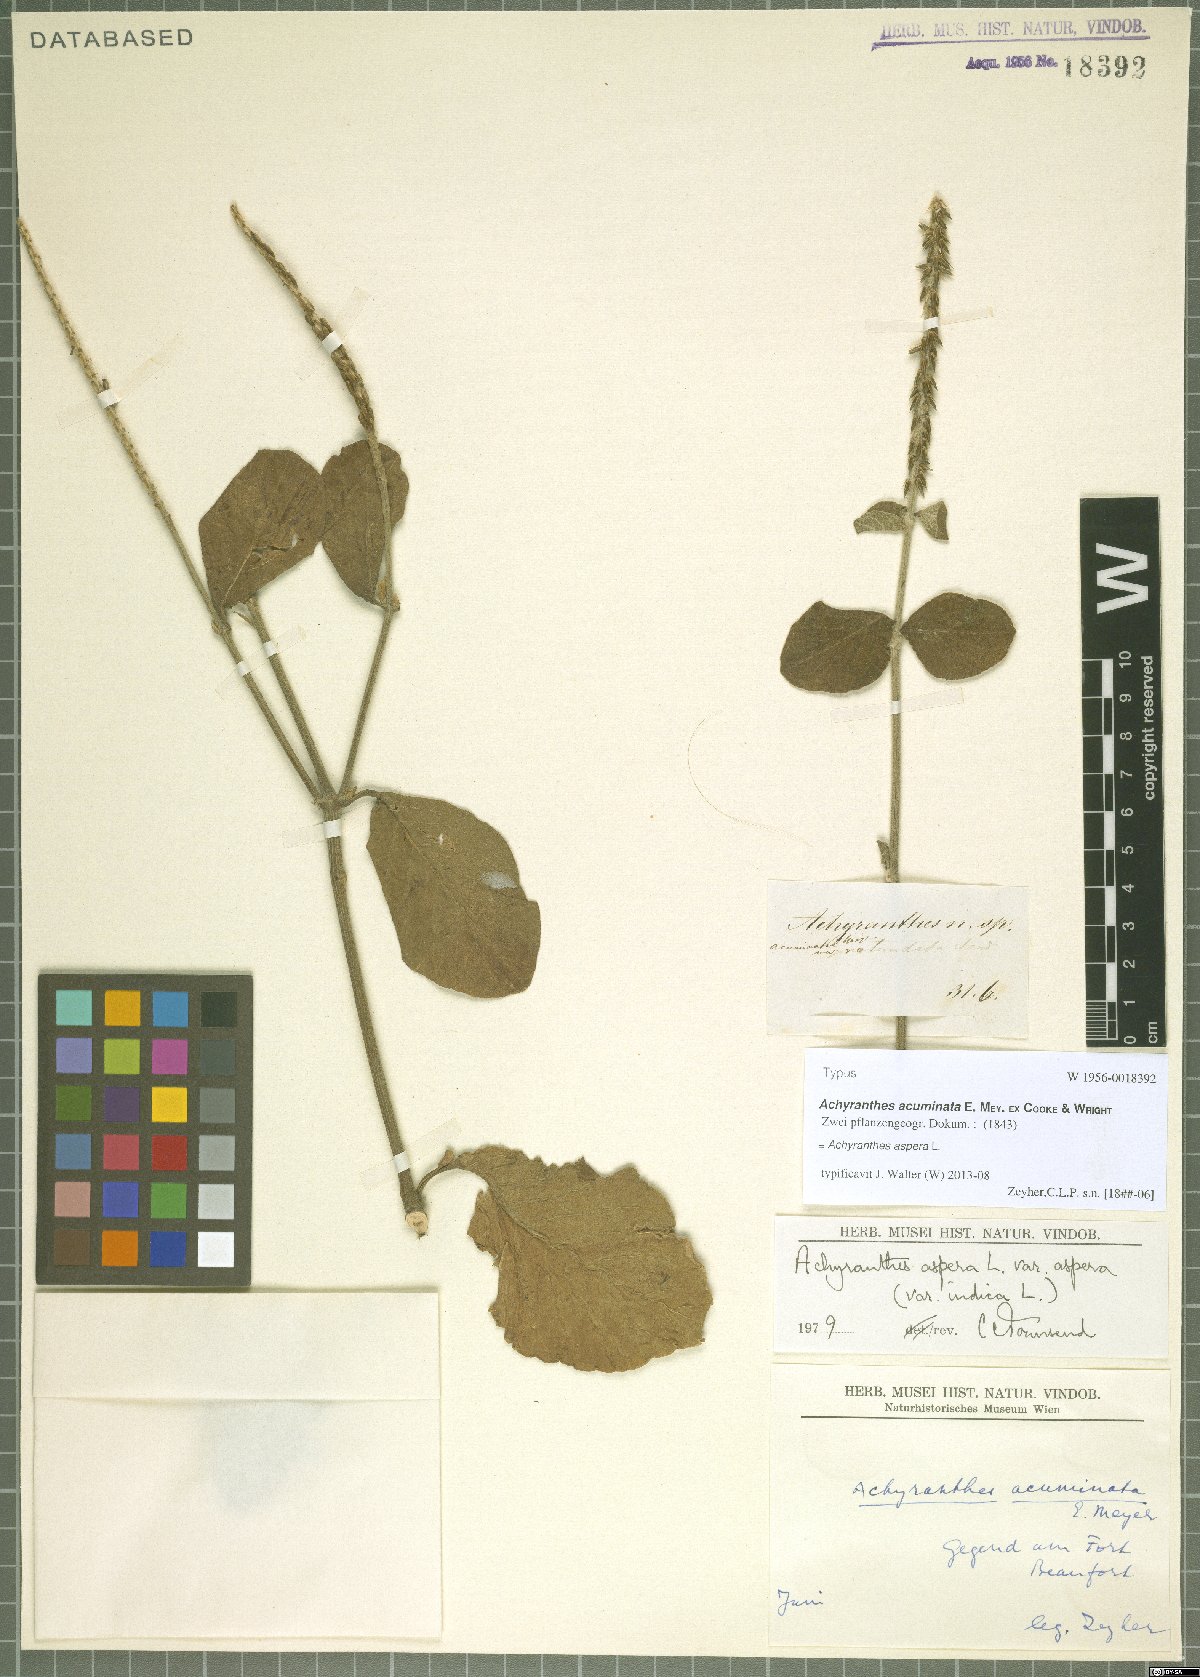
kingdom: Plantae
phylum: Tracheophyta
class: Magnoliopsida
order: Caryophyllales
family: Amaranthaceae
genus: Achyranthes
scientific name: Achyranthes aspera
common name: Devil's horsewhip
